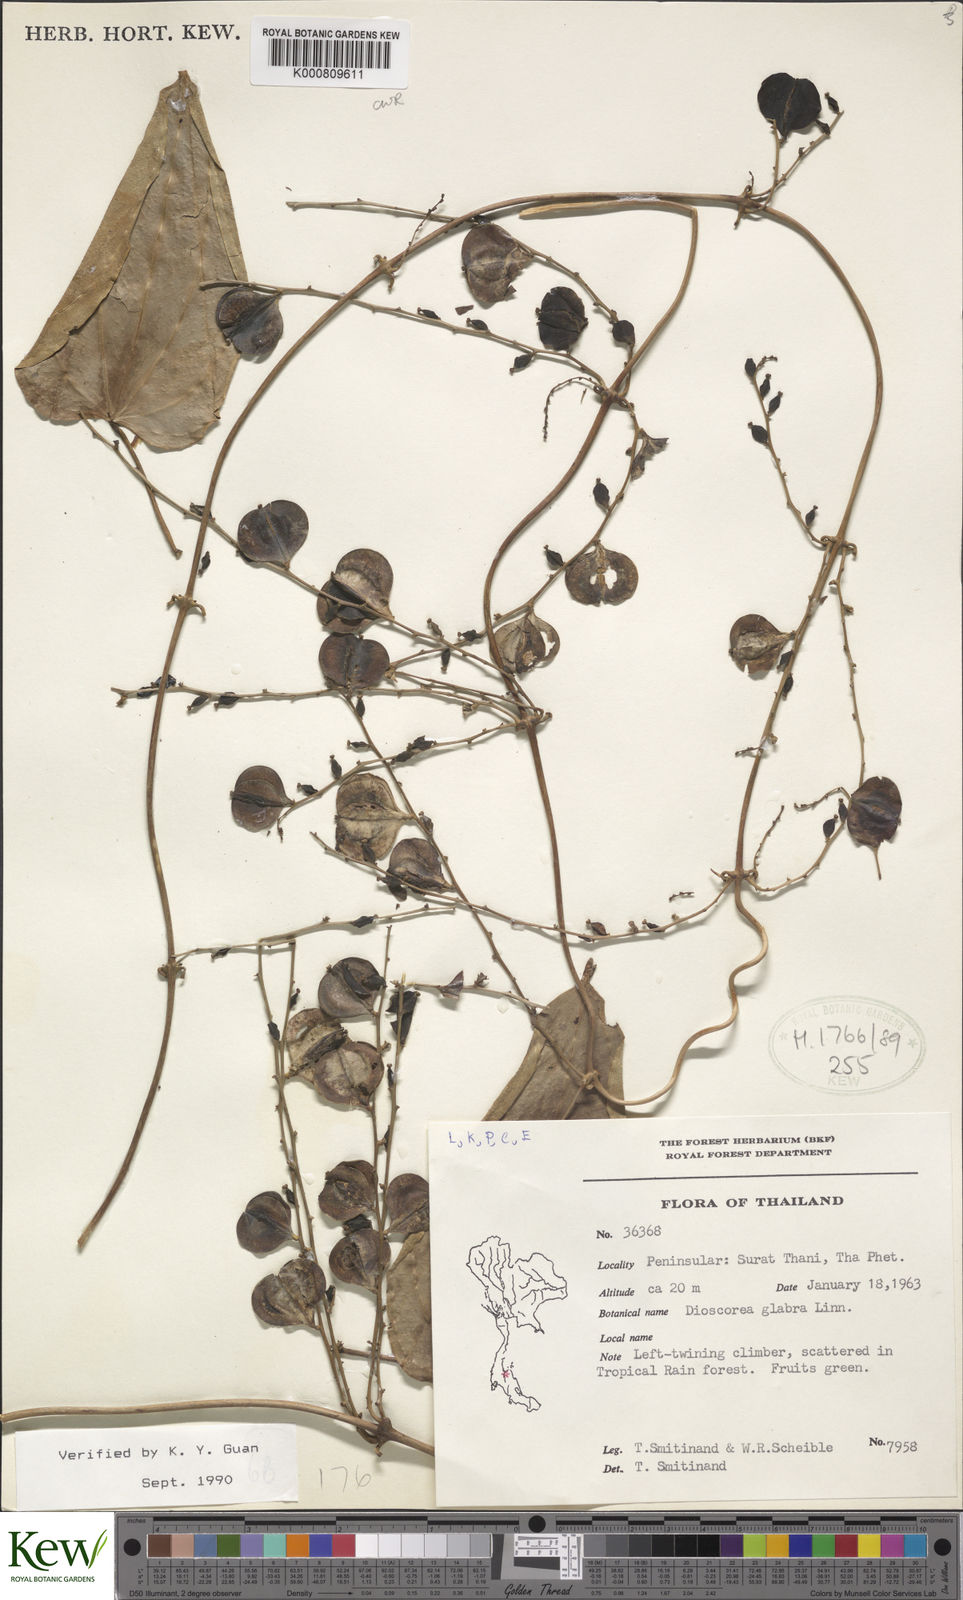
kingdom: Plantae
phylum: Tracheophyta
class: Liliopsida
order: Dioscoreales
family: Dioscoreaceae
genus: Dioscorea
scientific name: Dioscorea glabra
